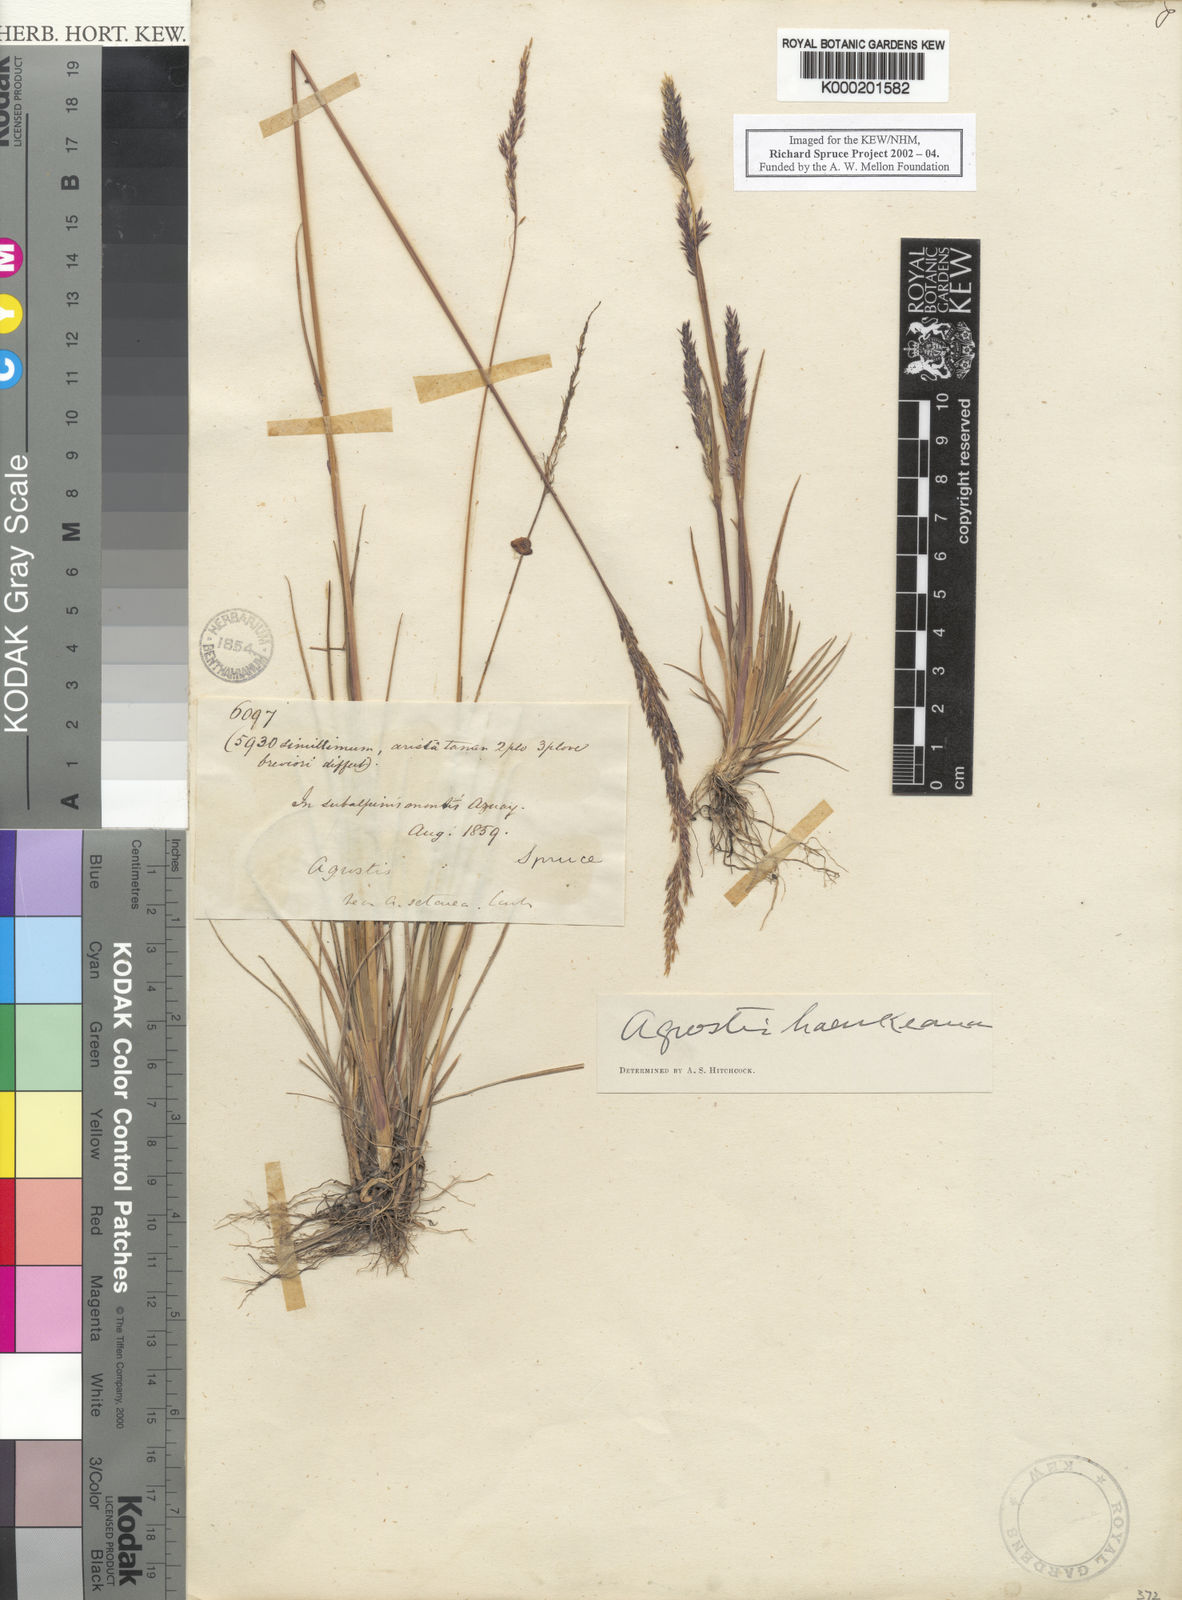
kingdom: Plantae
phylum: Tracheophyta
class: Liliopsida
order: Poales
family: Poaceae
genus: Polypogon
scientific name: Polypogon exasperatus
